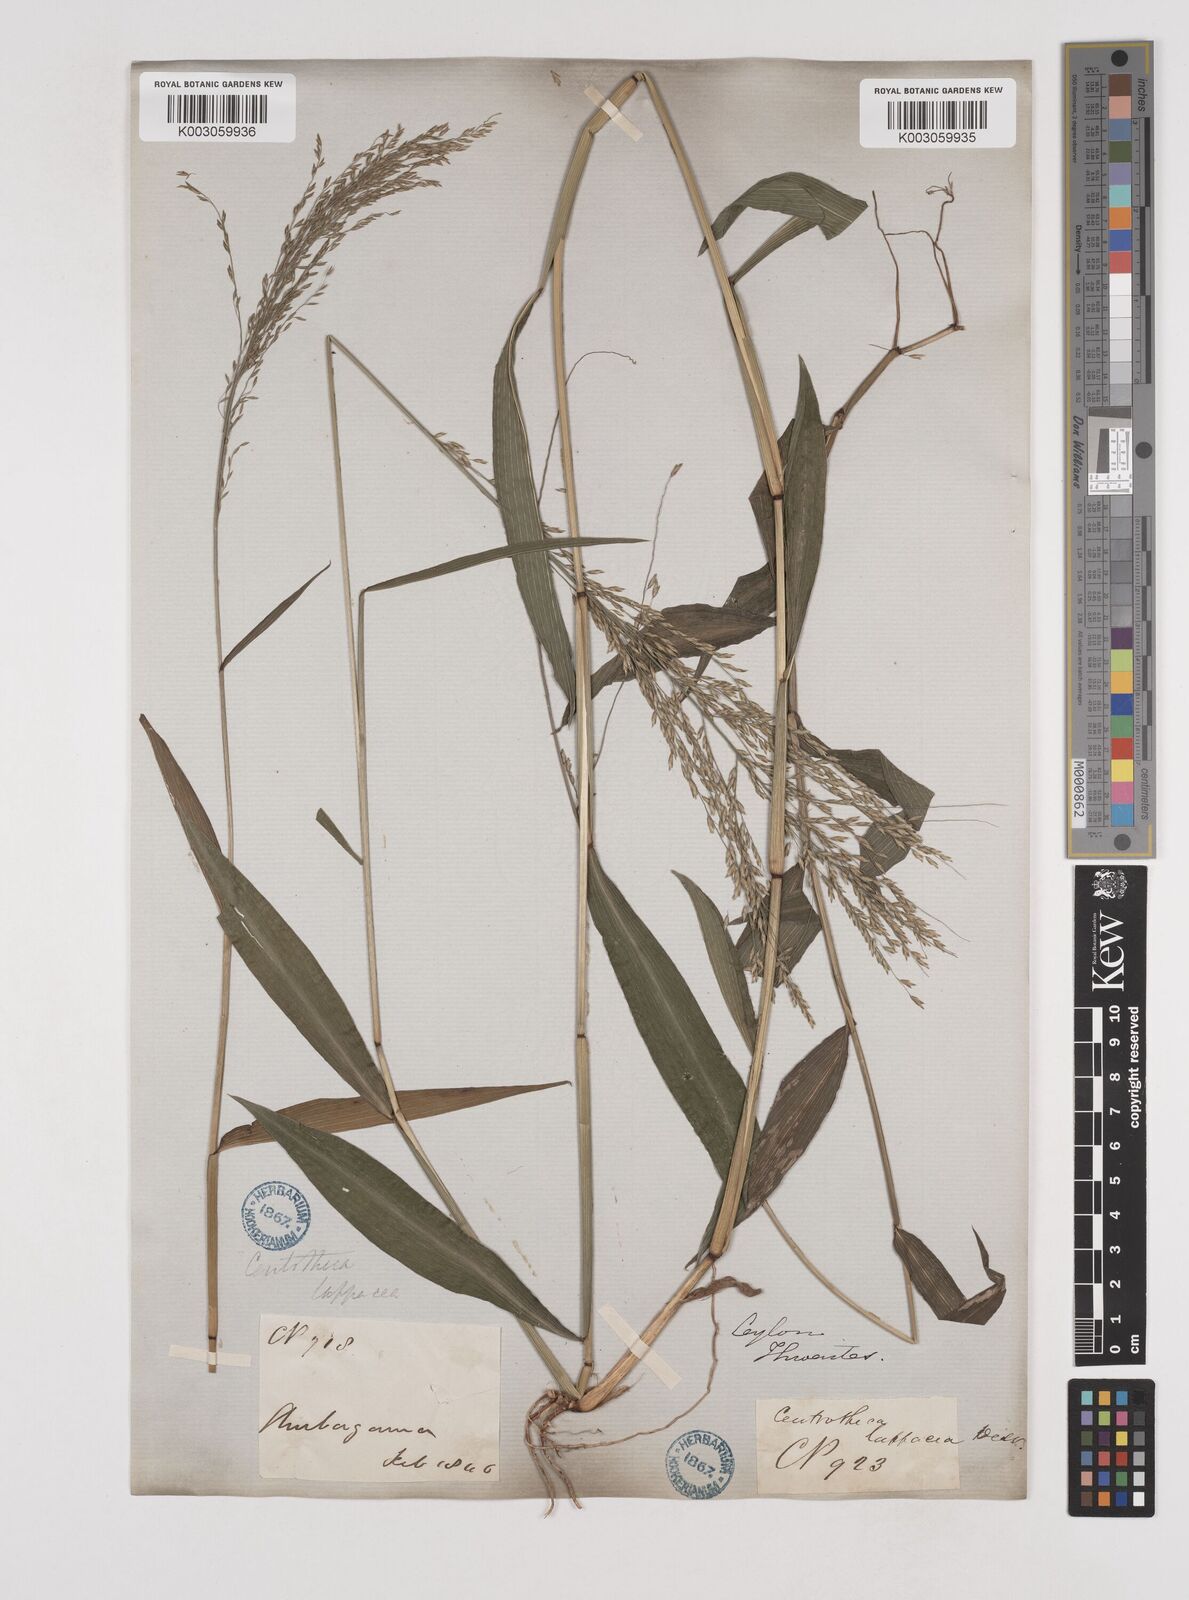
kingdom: Plantae
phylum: Tracheophyta
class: Liliopsida
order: Poales
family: Poaceae
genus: Centotheca
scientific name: Centotheca lappacea
